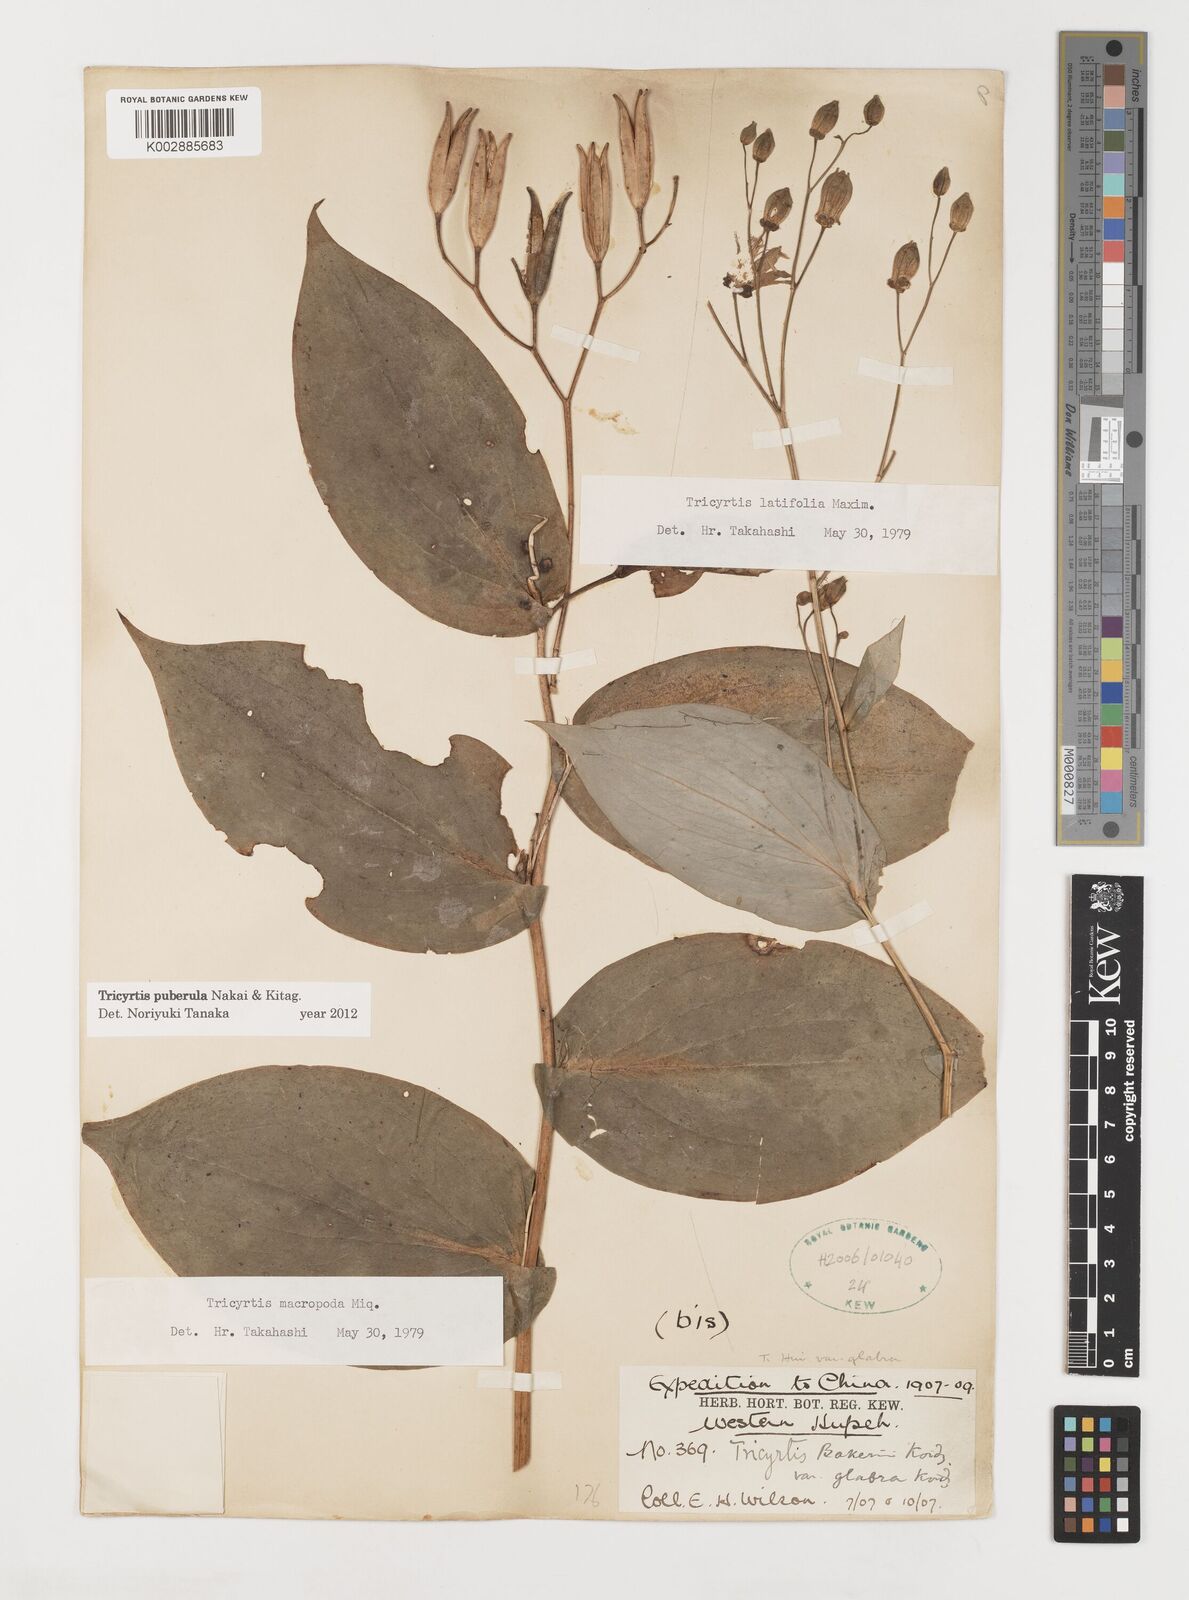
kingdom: Plantae
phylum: Tracheophyta
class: Liliopsida
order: Liliales
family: Liliaceae
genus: Tricyrtis
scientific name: Tricyrtis puberula
